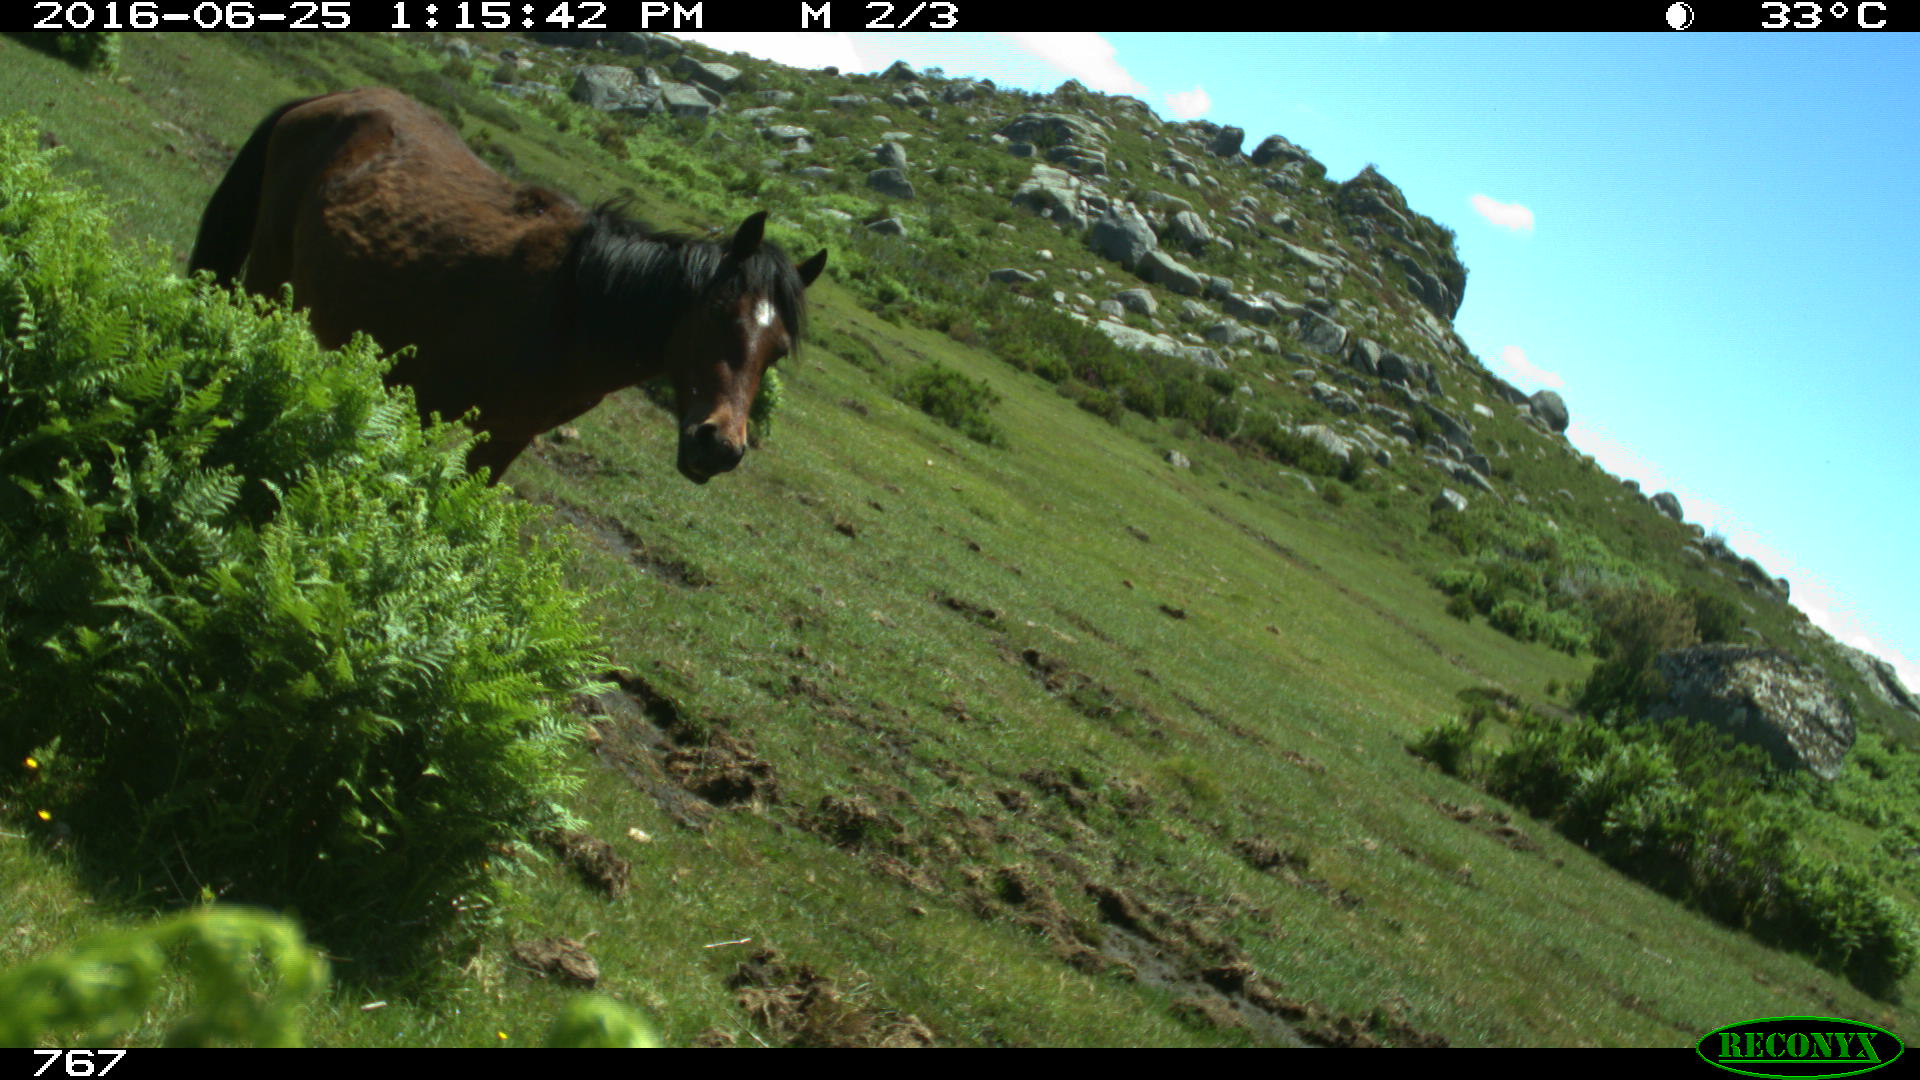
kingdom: Animalia
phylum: Chordata
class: Mammalia
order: Perissodactyla
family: Equidae
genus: Equus
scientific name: Equus caballus
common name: Horse
